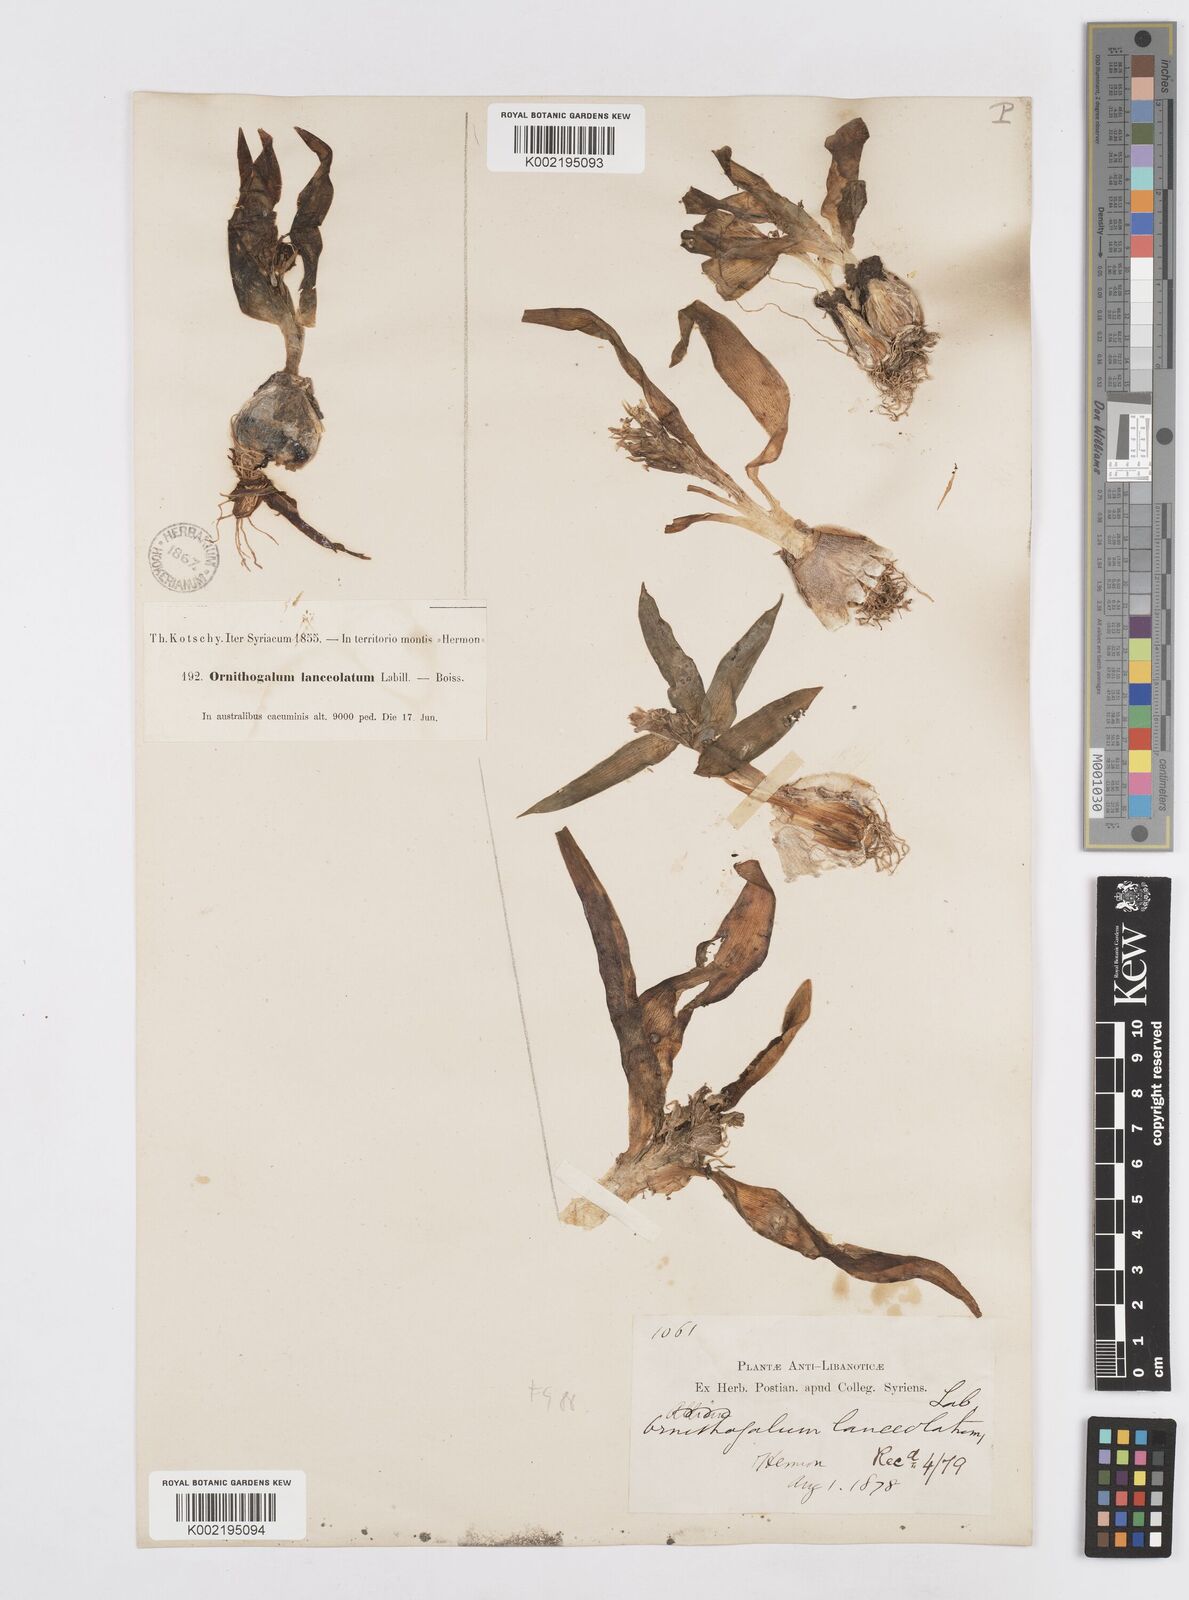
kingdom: Plantae
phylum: Tracheophyta
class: Liliopsida
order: Asparagales
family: Asparagaceae
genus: Ornithogalum
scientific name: Ornithogalum lanceolatum
